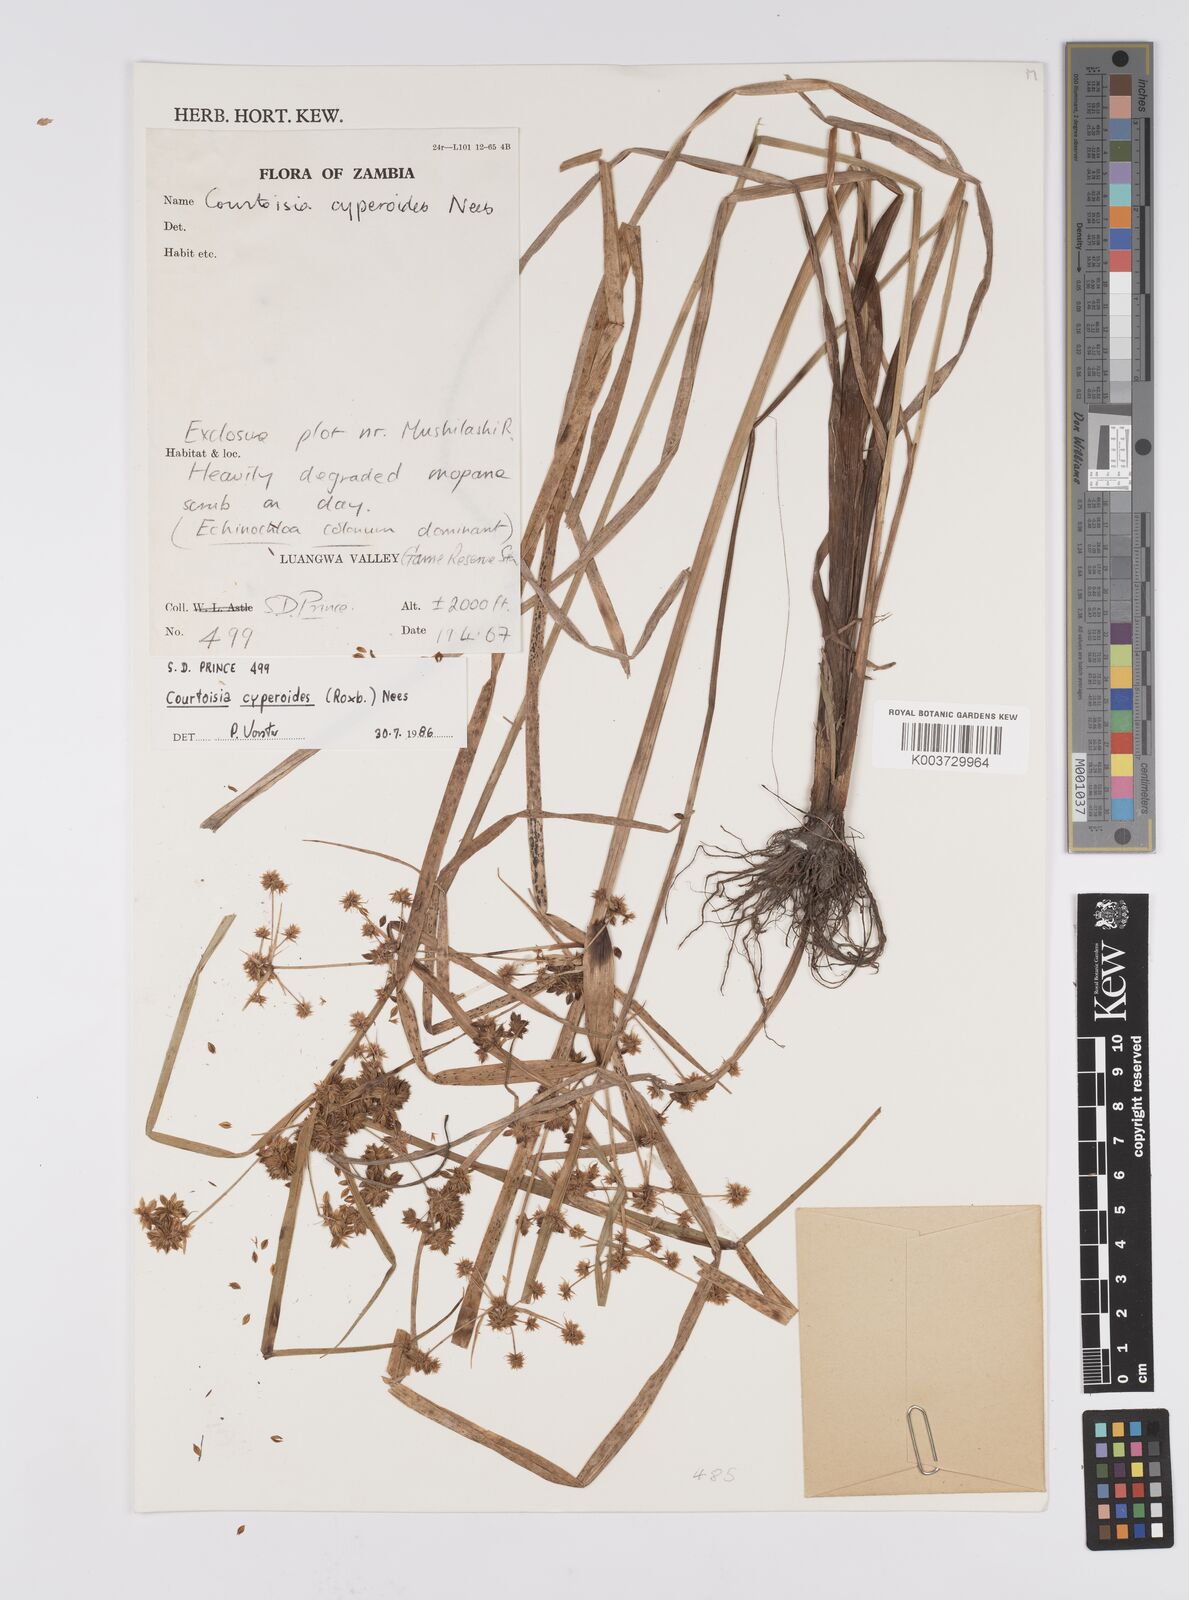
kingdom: Plantae
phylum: Tracheophyta
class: Liliopsida
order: Poales
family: Cyperaceae
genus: Cyperus
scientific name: Cyperus cyperoides
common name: Pacific island flat sedge
